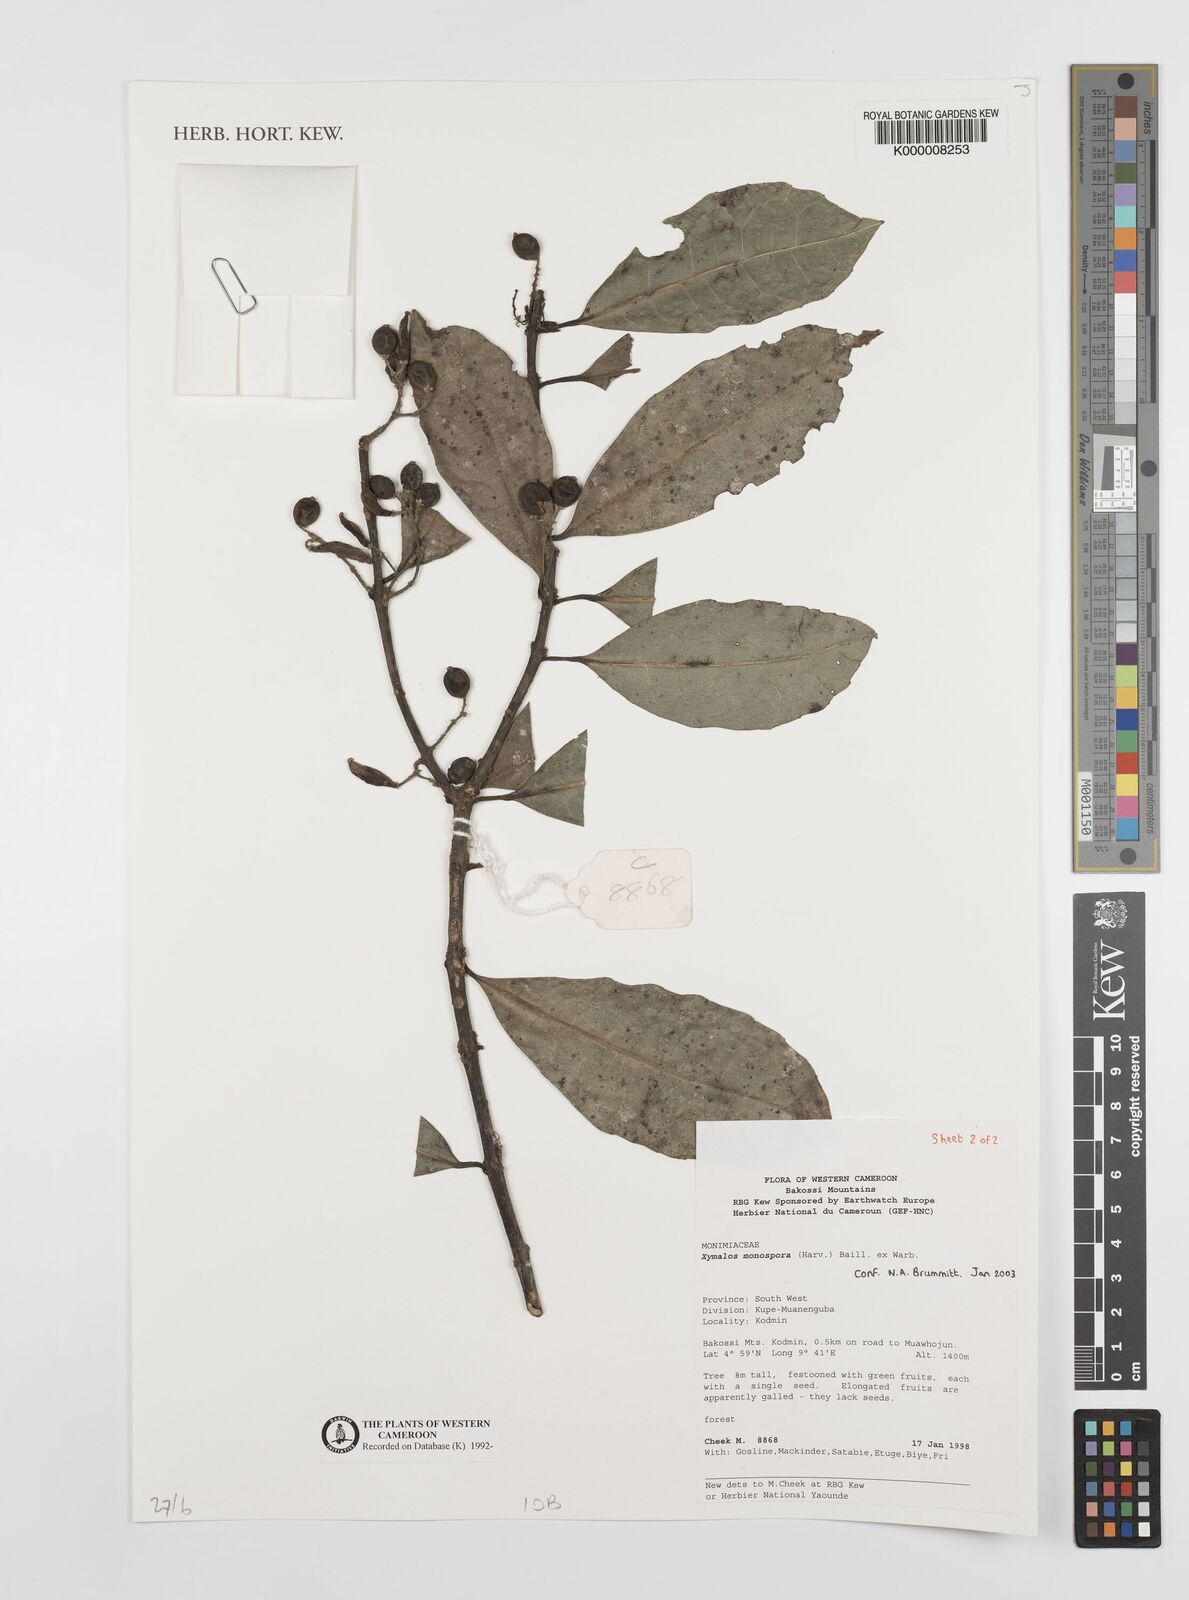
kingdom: Plantae
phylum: Tracheophyta
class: Magnoliopsida
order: Laurales
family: Monimiaceae
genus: Xymalos
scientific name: Xymalos
